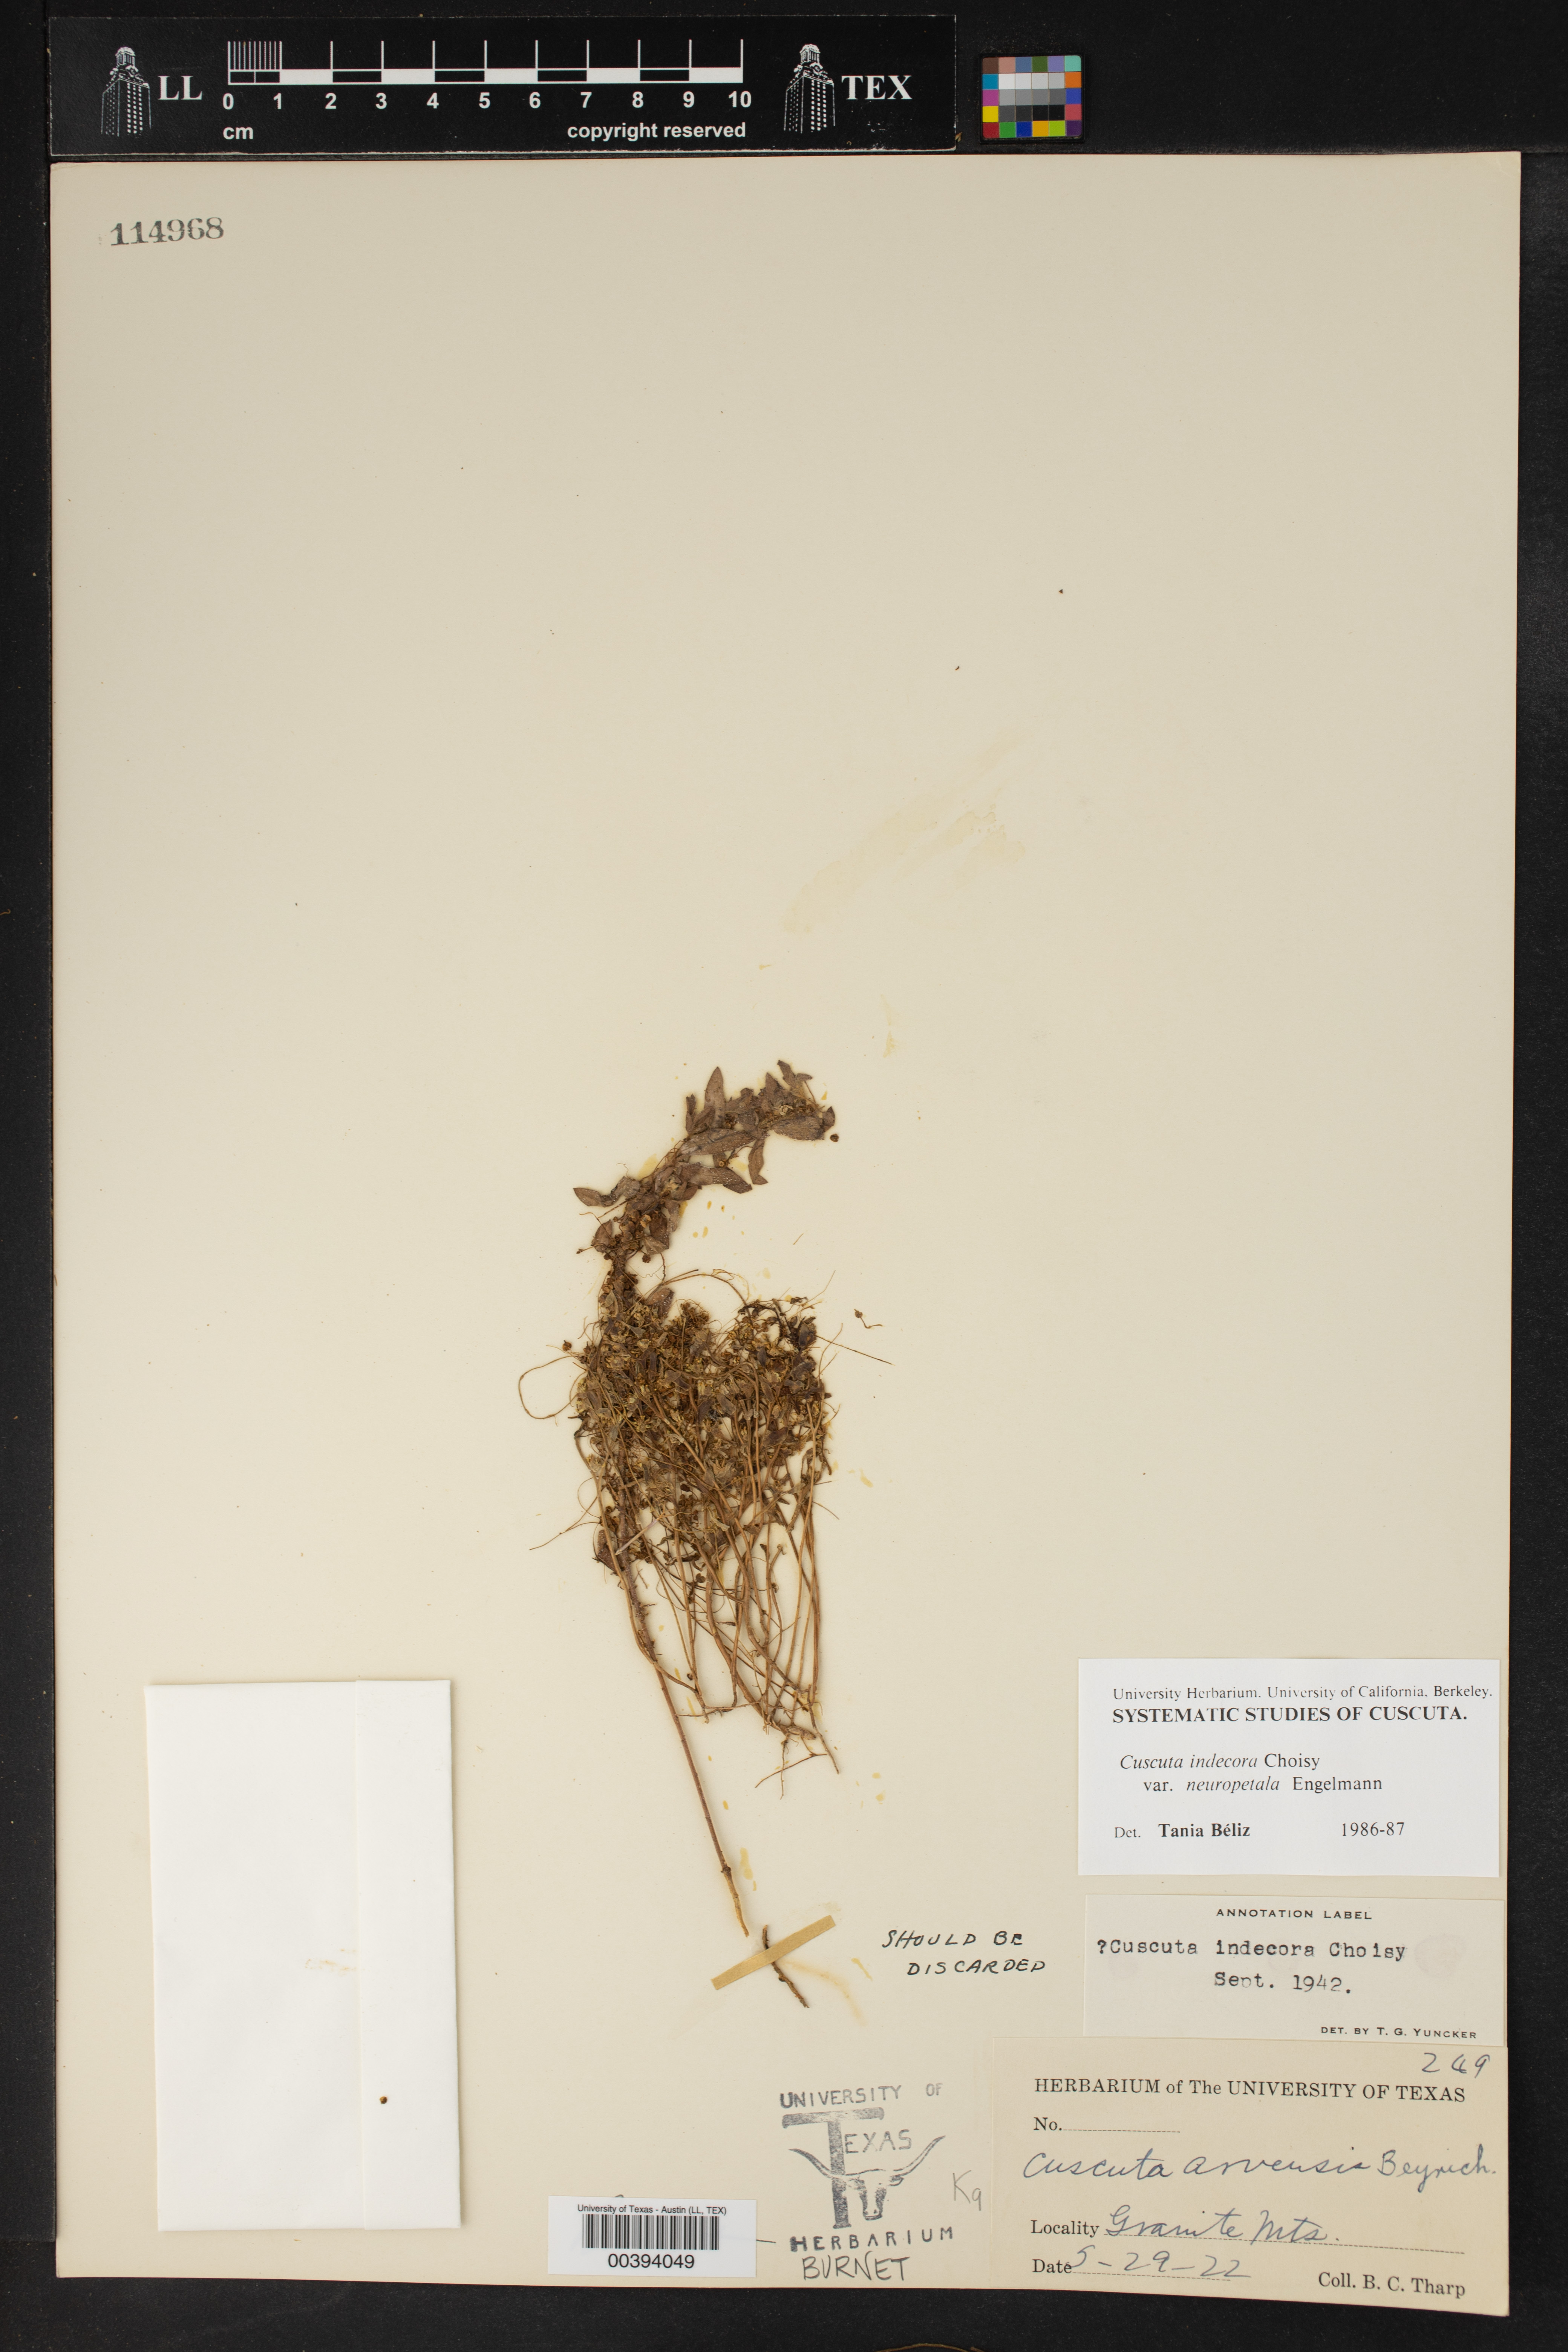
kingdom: Plantae
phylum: Tracheophyta
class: Magnoliopsida
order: Solanales
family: Convolvulaceae
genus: Cuscuta
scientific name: Cuscuta indecora
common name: Large-seed dodder
